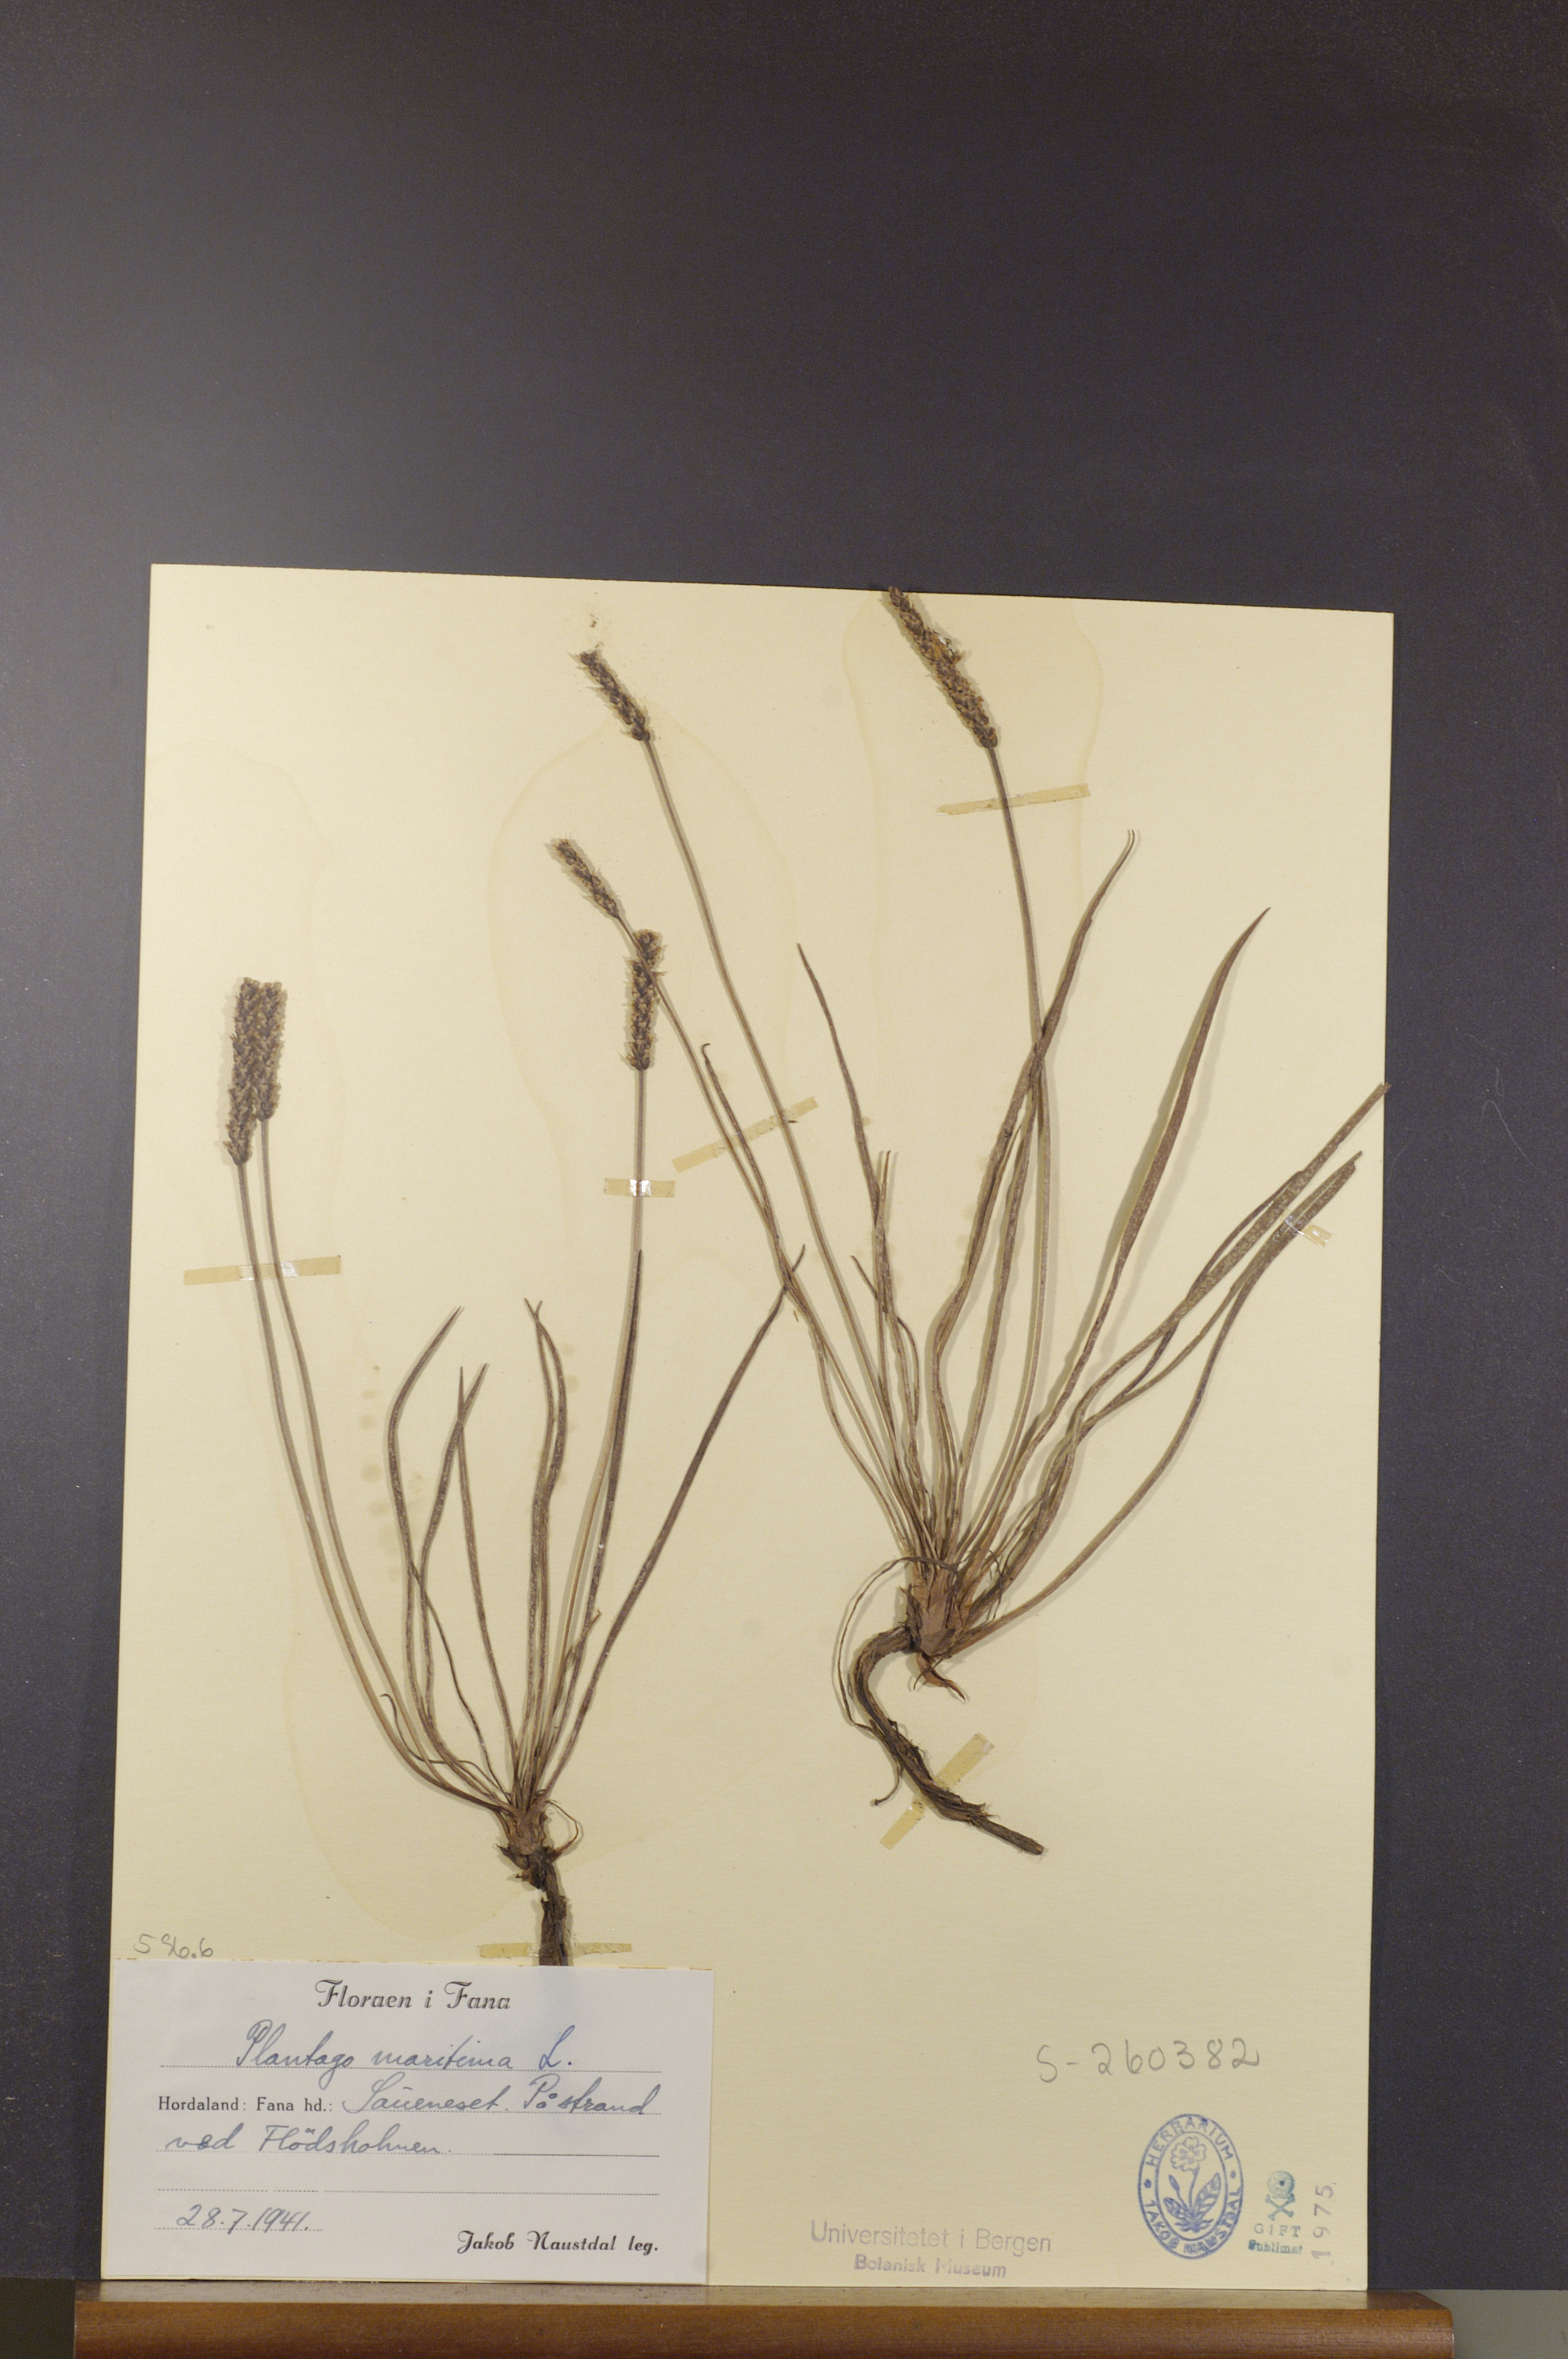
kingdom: Plantae
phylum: Tracheophyta
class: Magnoliopsida
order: Lamiales
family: Plantaginaceae
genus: Plantago
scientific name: Plantago maritima
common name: Sea plantain
